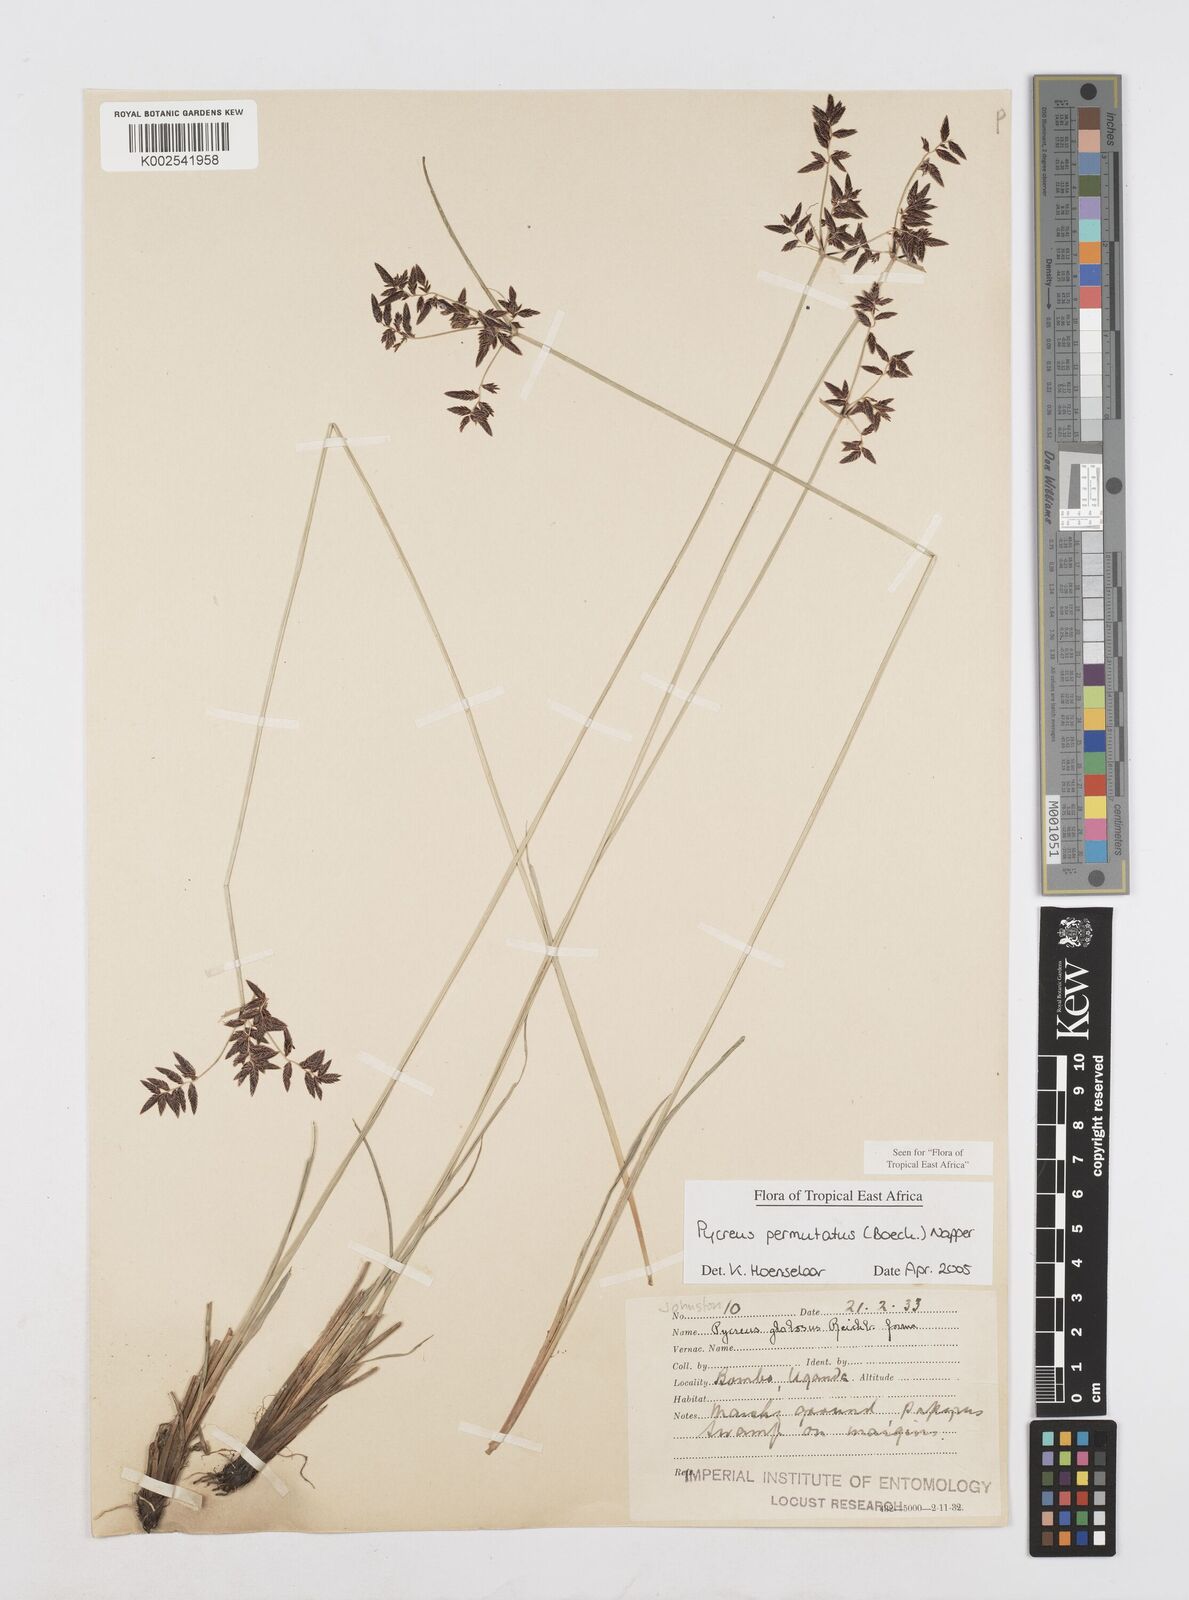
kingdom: Plantae
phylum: Tracheophyta
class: Liliopsida
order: Poales
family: Cyperaceae
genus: Cyperus
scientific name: Cyperus nigricans
